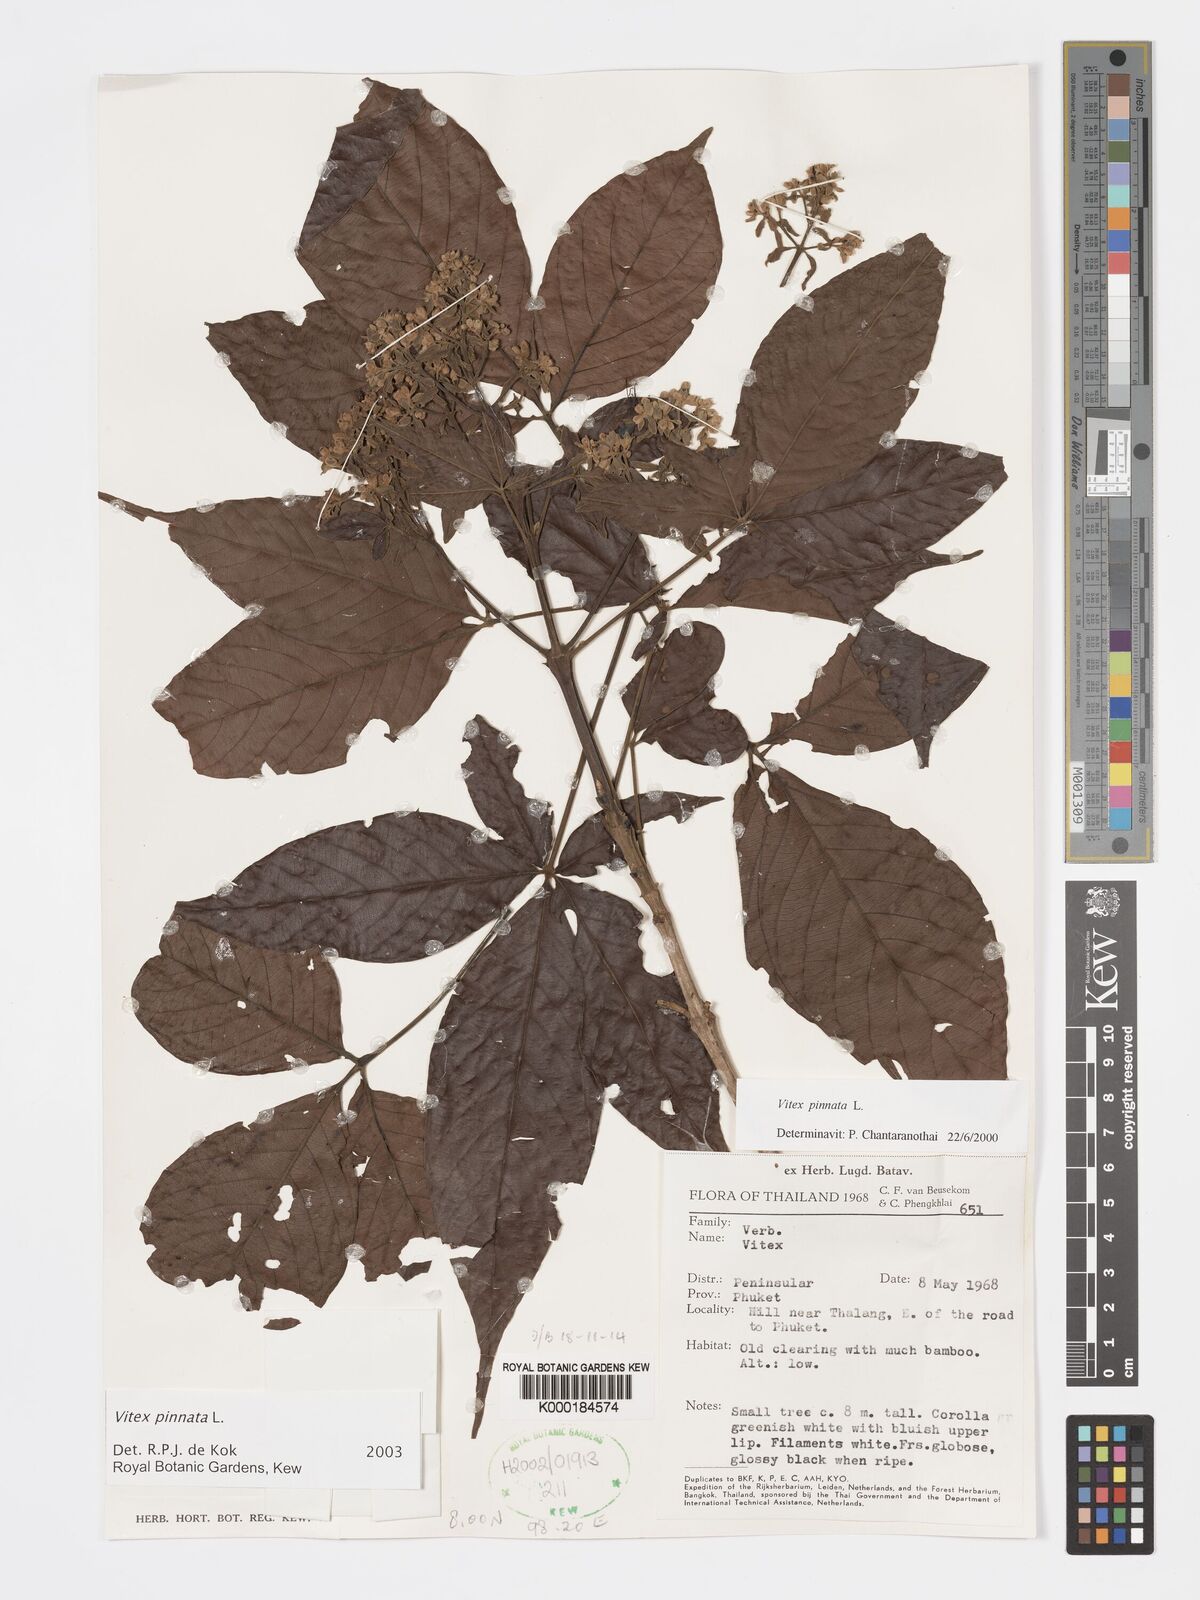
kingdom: Plantae
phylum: Tracheophyta
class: Magnoliopsida
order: Lamiales
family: Lamiaceae
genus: Vitex
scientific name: Vitex pinnata
